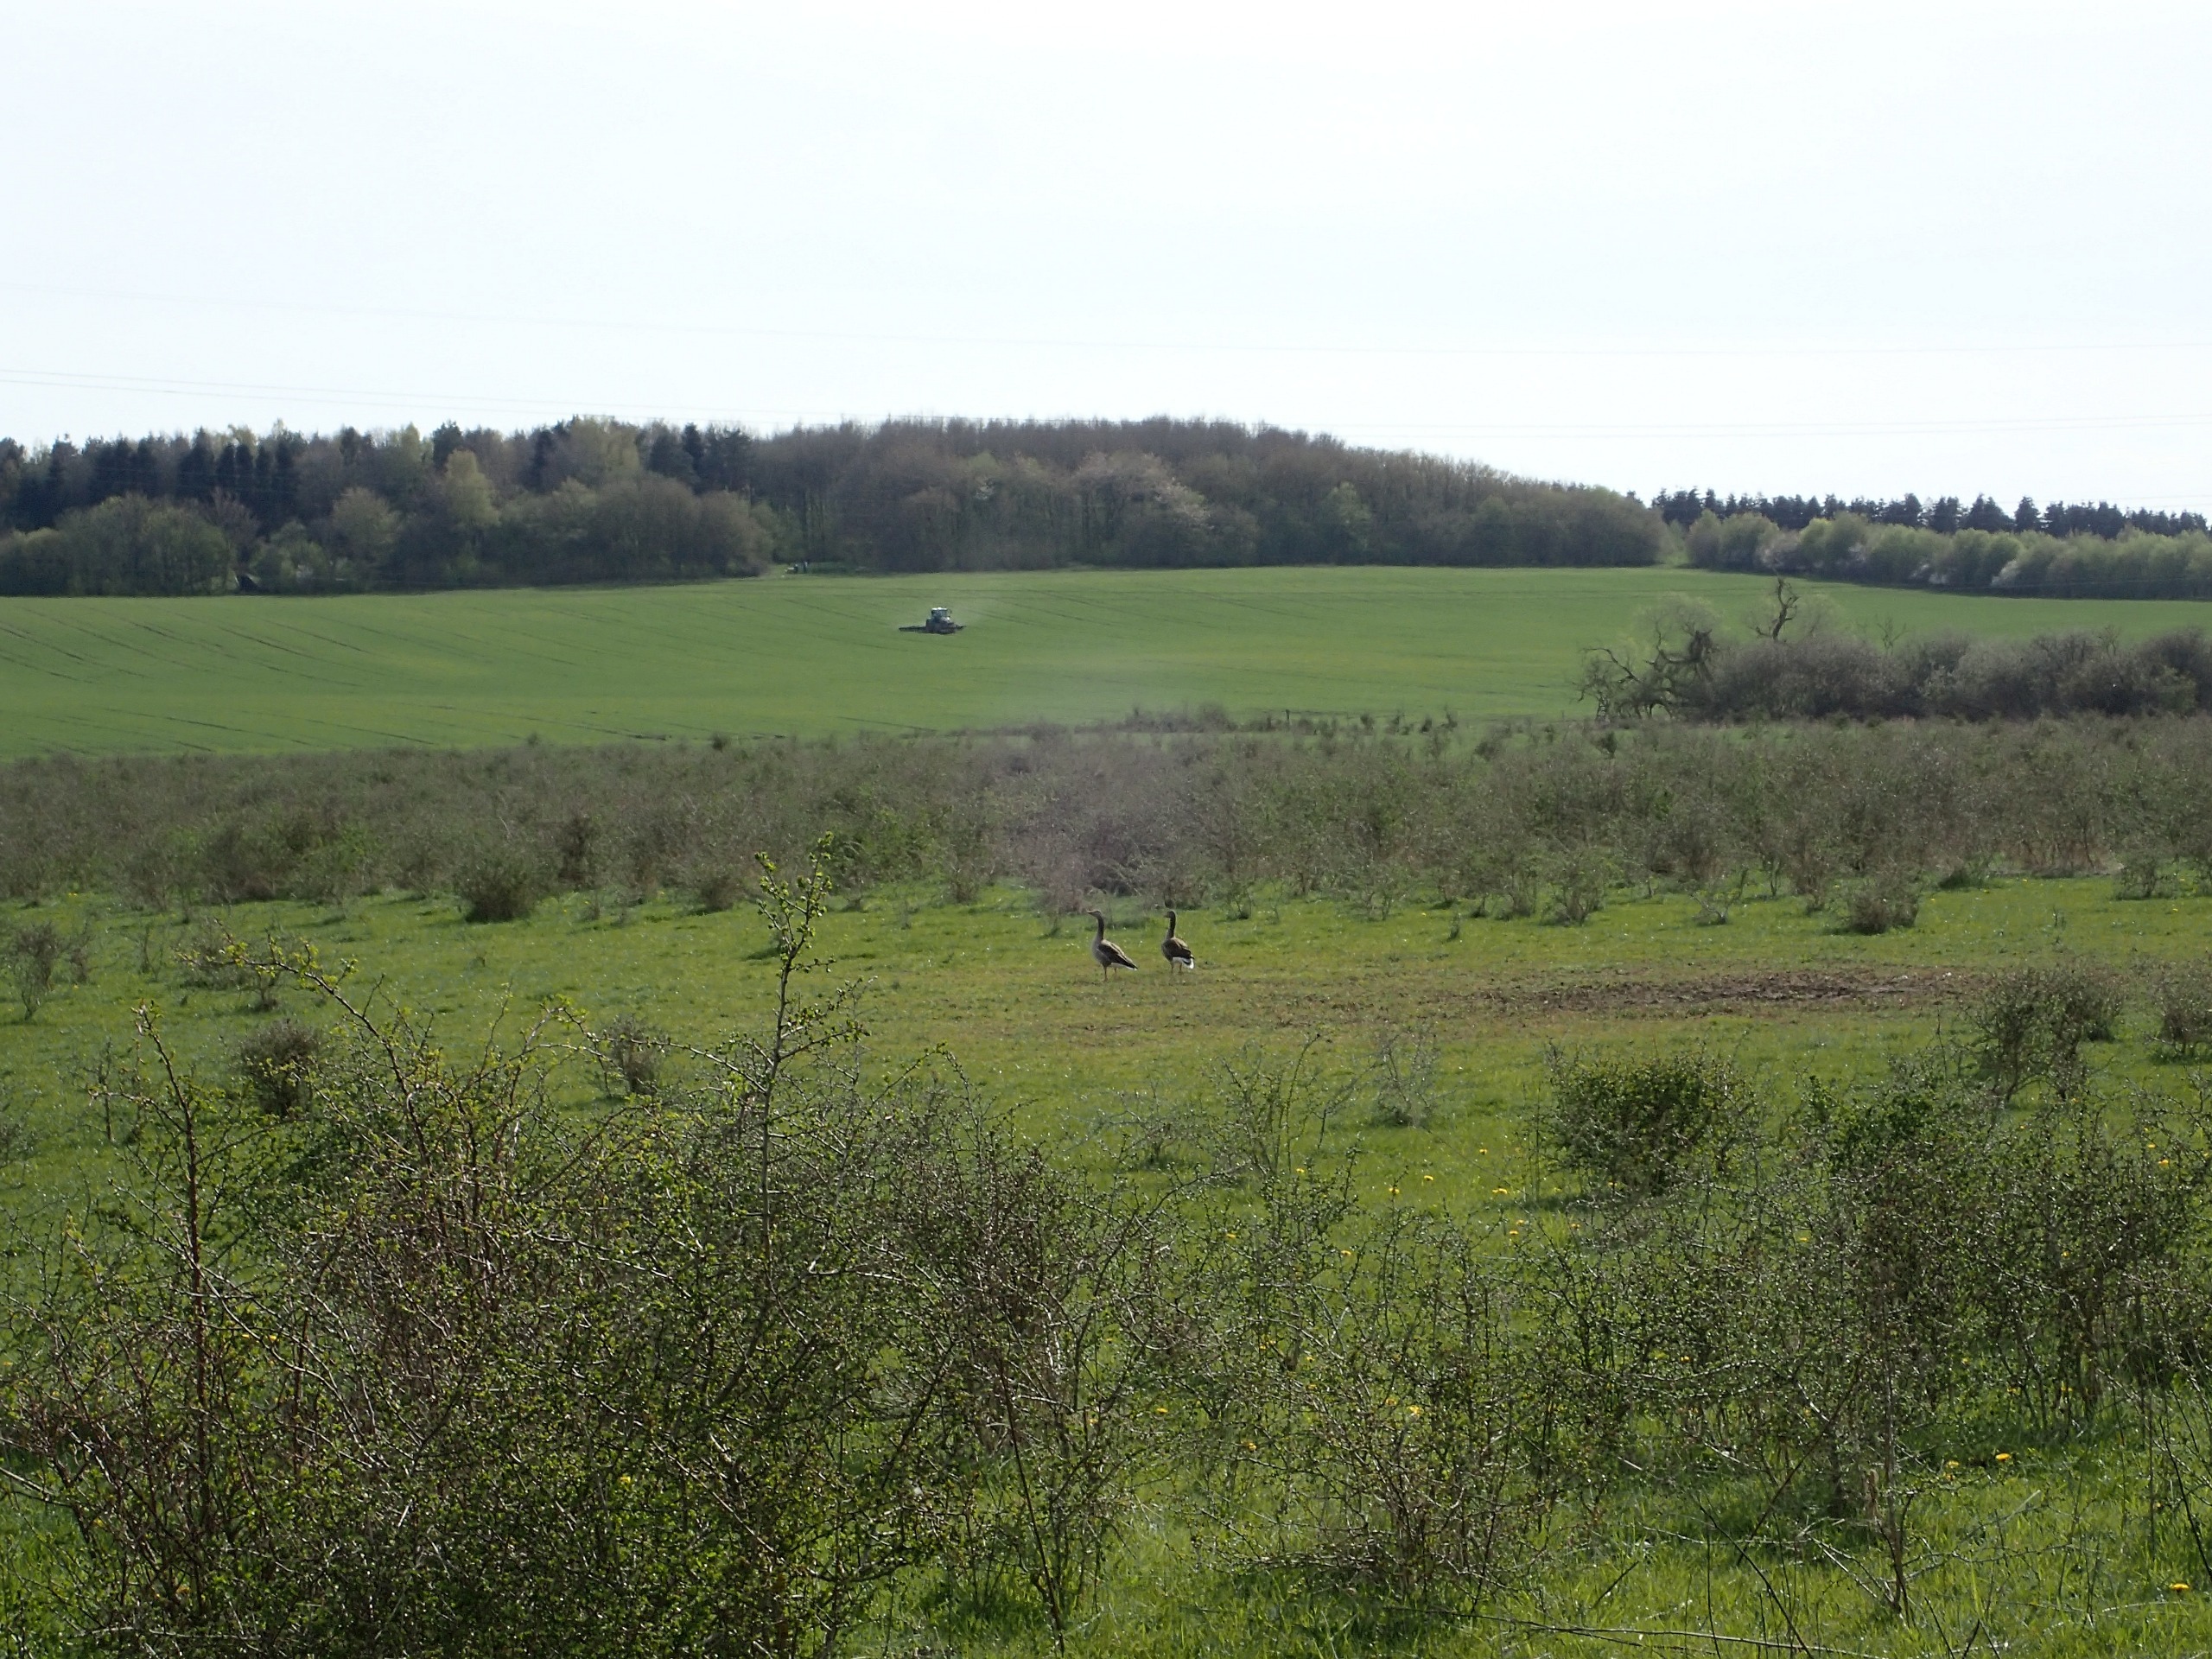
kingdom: Animalia
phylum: Chordata
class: Aves
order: Anseriformes
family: Anatidae
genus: Anser
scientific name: Anser anser
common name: Grågås
